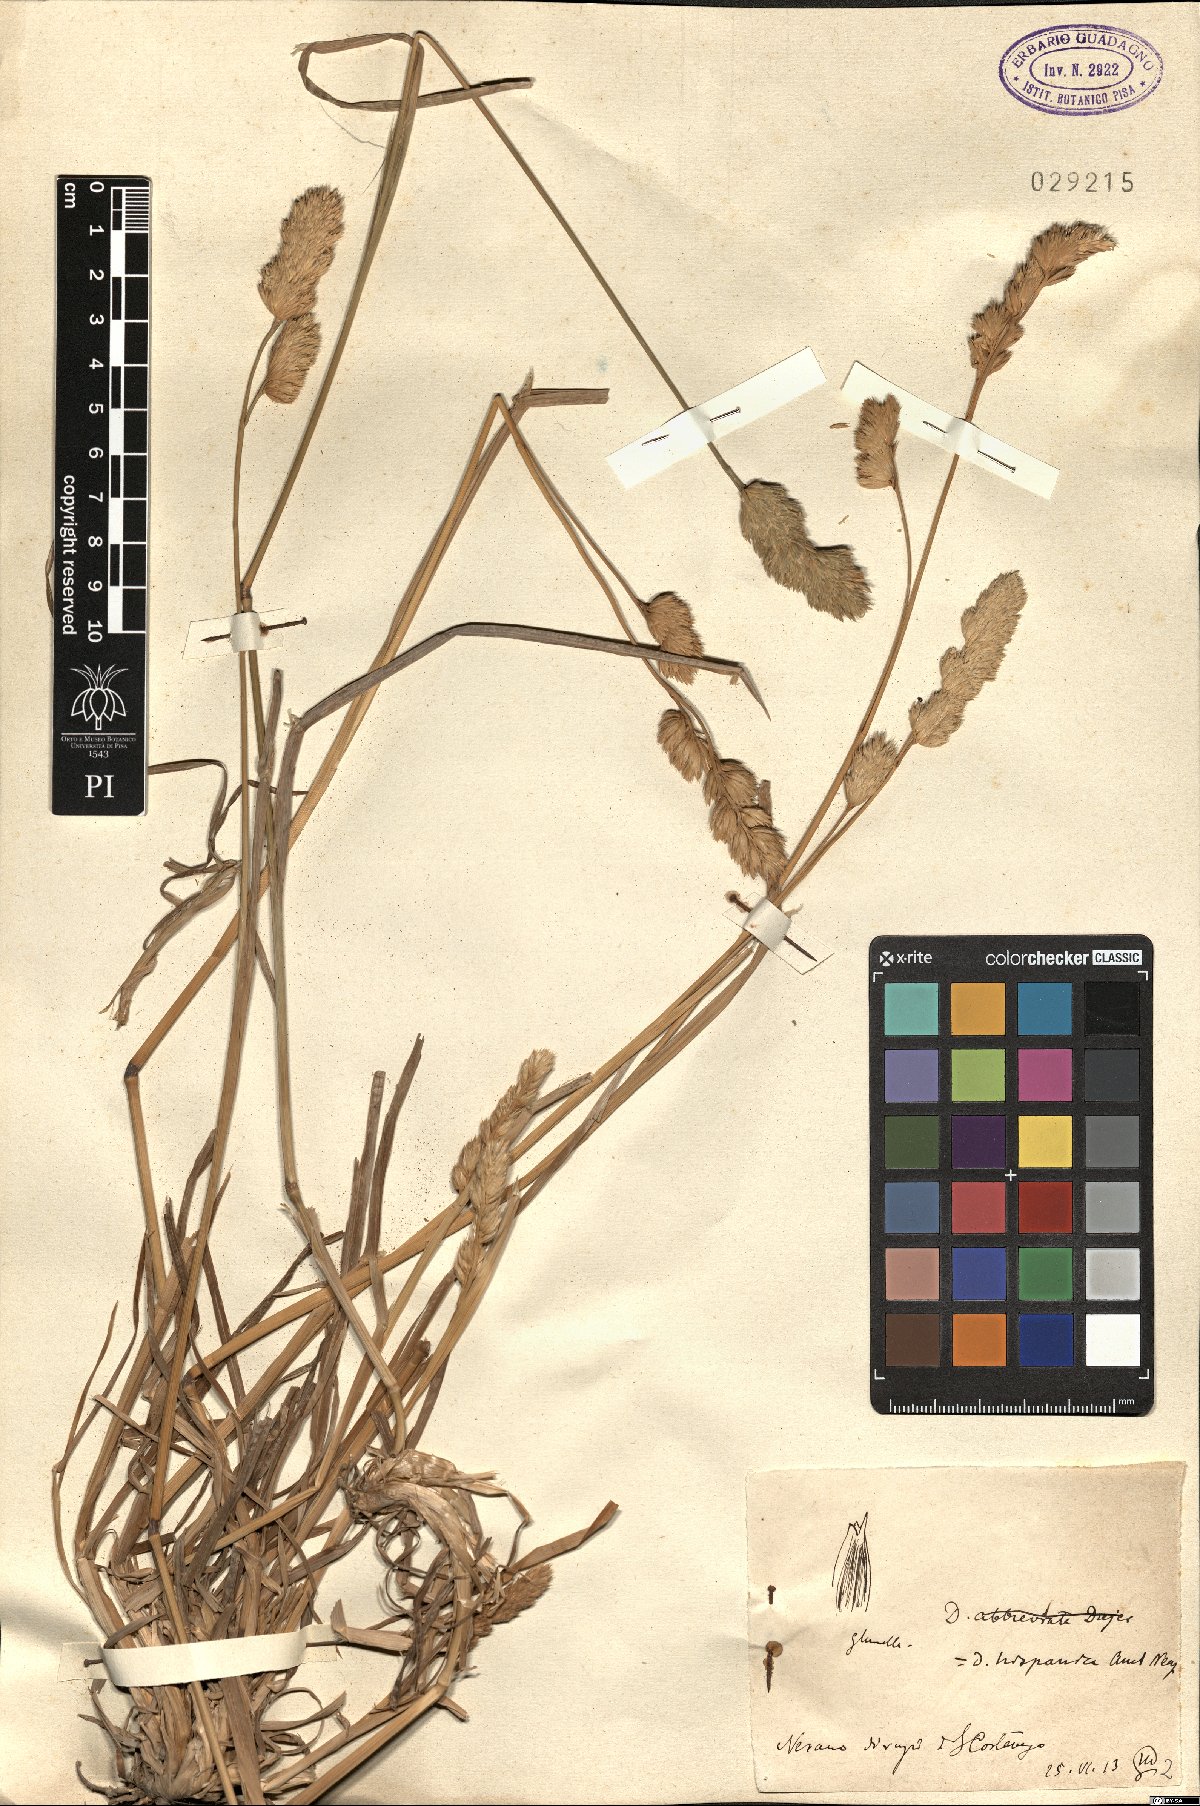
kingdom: Plantae
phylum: Tracheophyta
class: Liliopsida
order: Poales
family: Poaceae
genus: Dactylis
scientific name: Dactylis glomerata
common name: Orchardgrass
